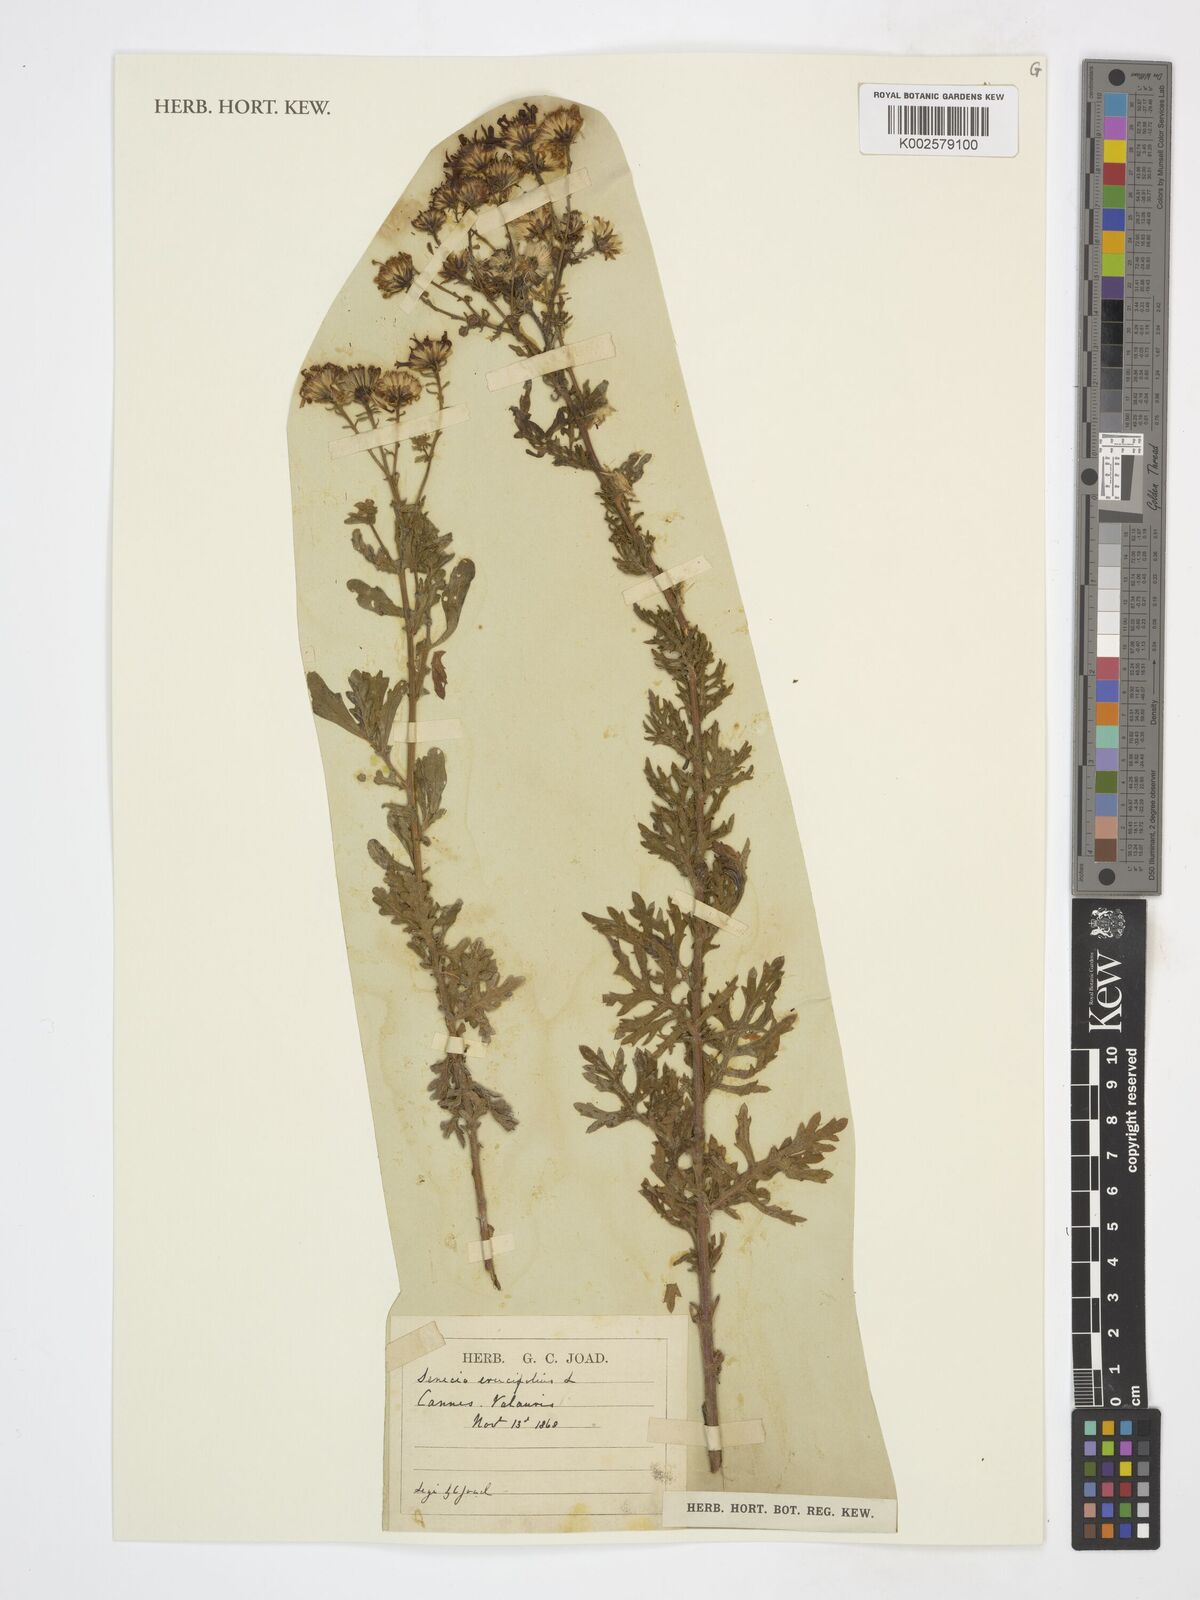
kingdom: Plantae
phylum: Tracheophyta
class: Magnoliopsida
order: Asterales
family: Asteraceae
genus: Jacobaea
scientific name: Jacobaea erucifolia
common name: Hoary ragwort
